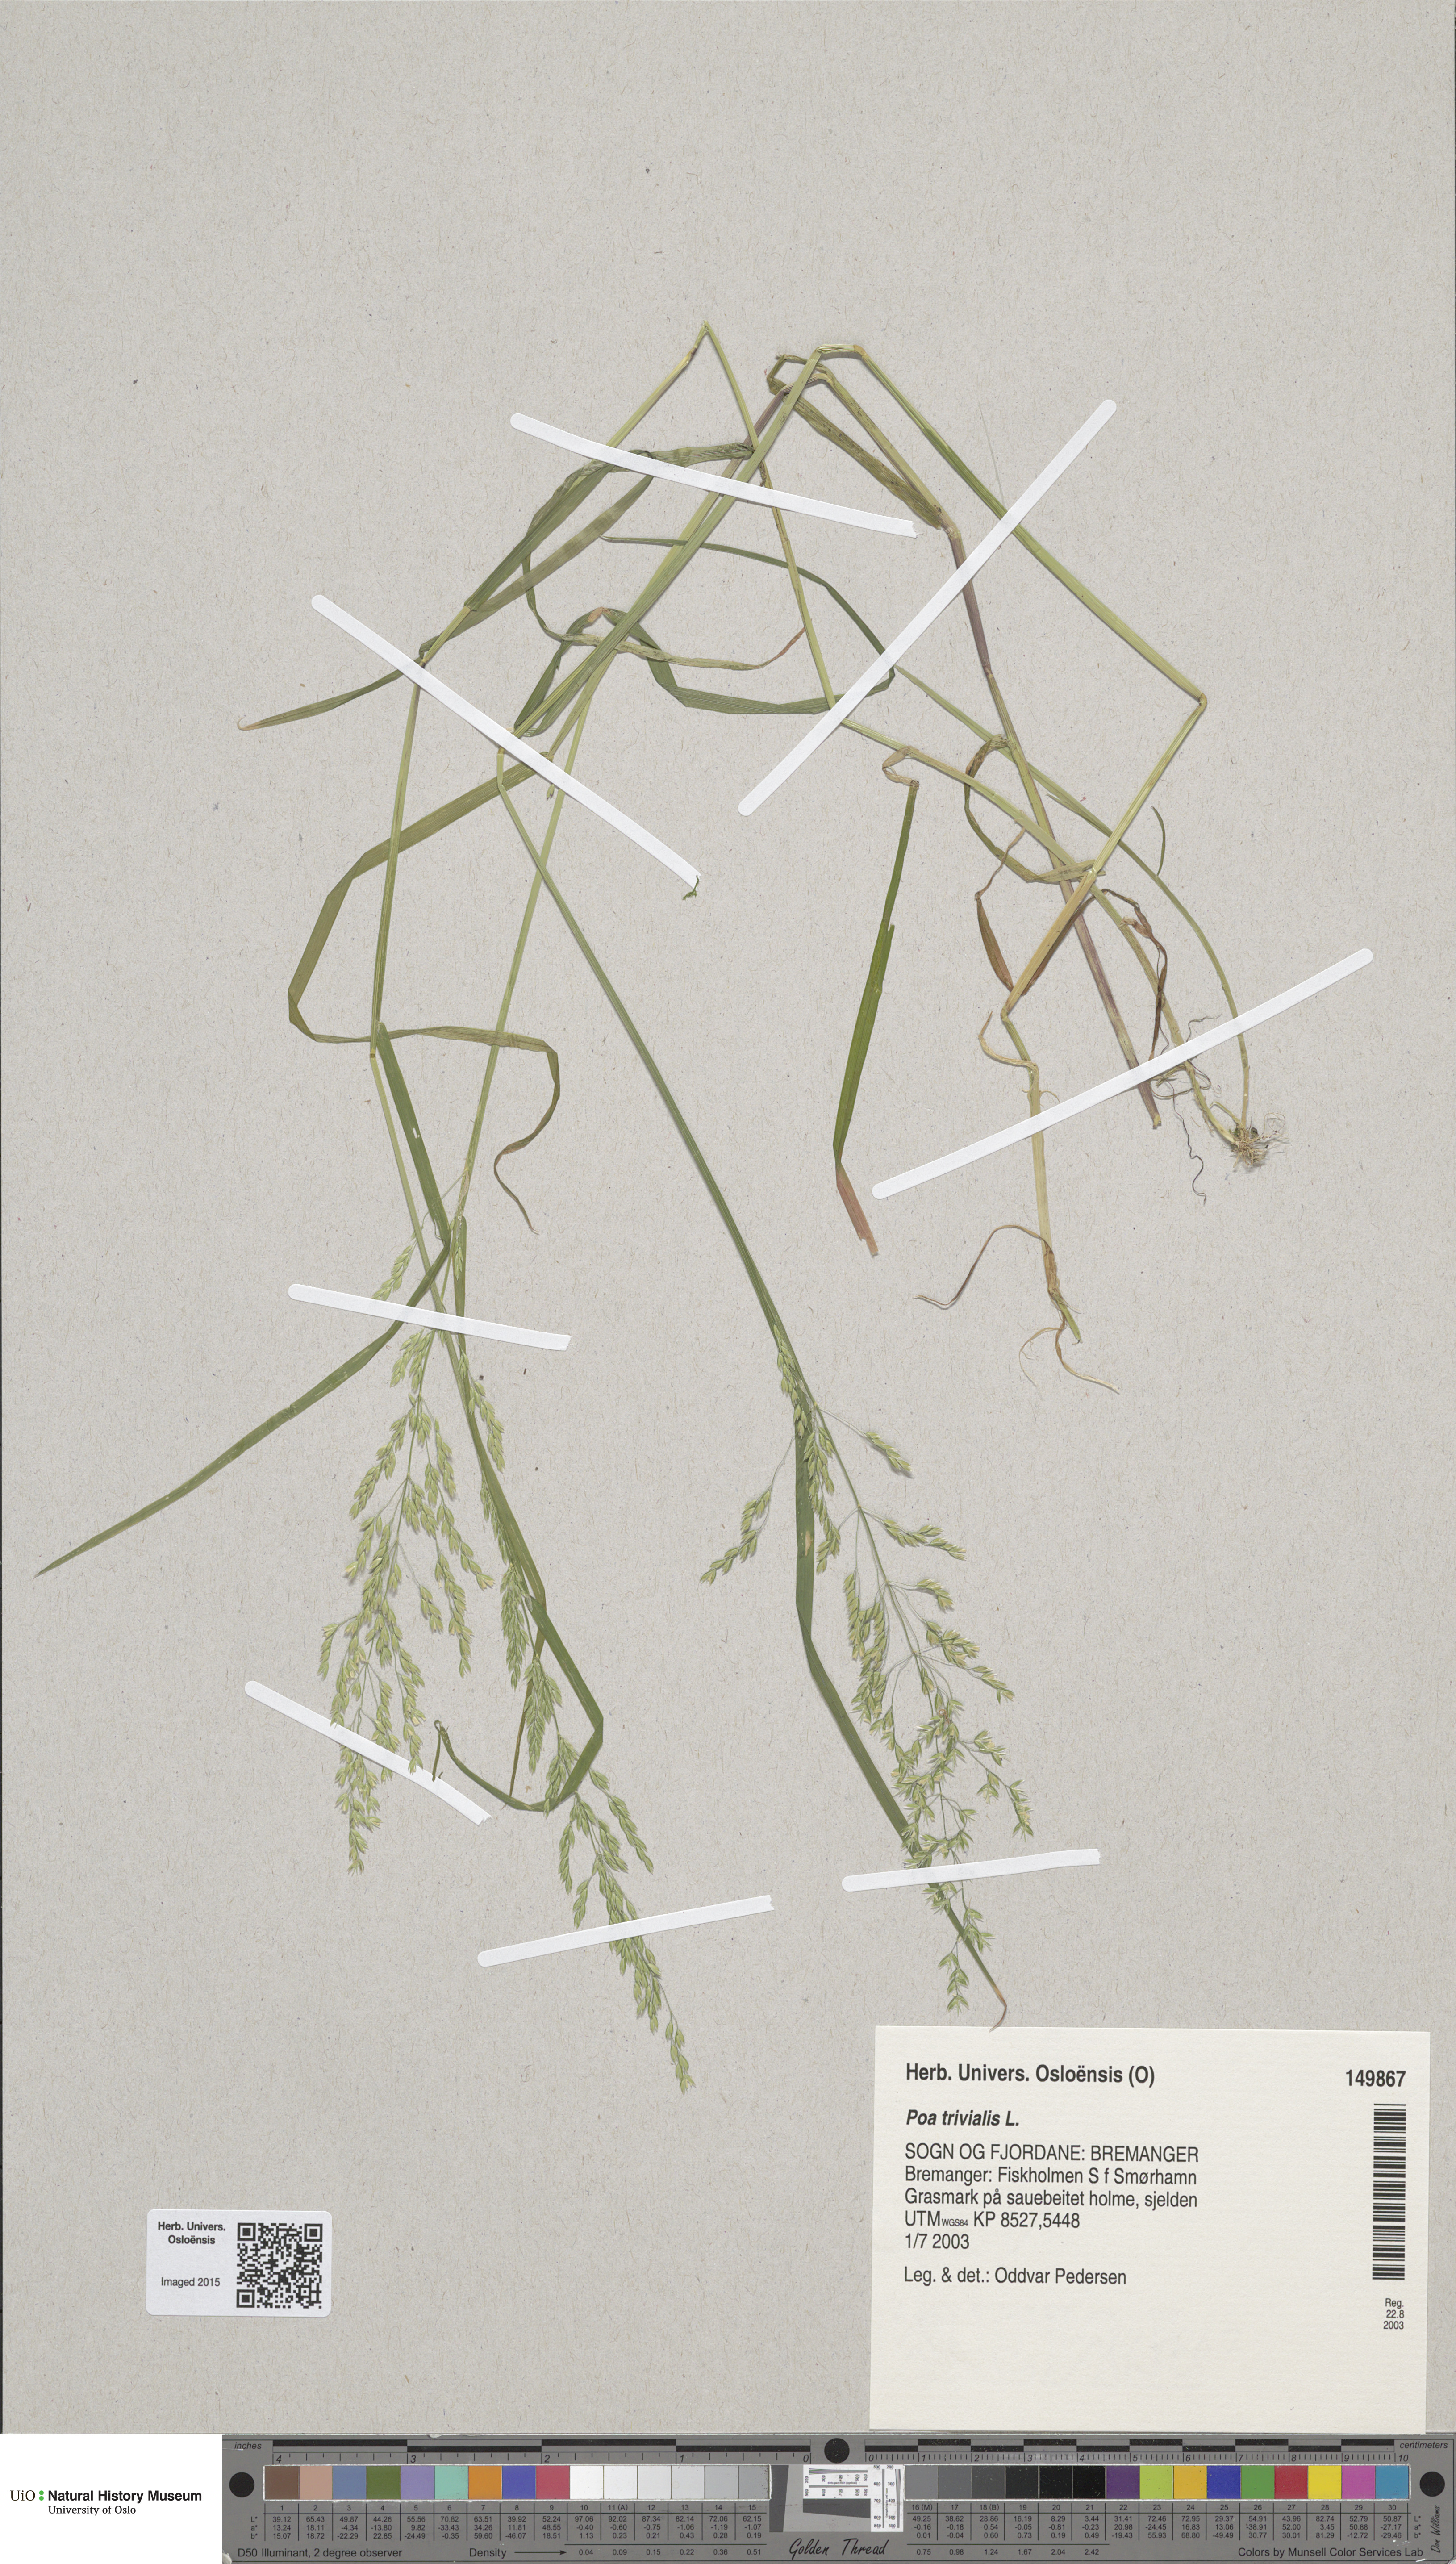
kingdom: Plantae
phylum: Tracheophyta
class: Liliopsida
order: Poales
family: Poaceae
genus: Poa
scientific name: Poa trivialis
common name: Rough bluegrass
